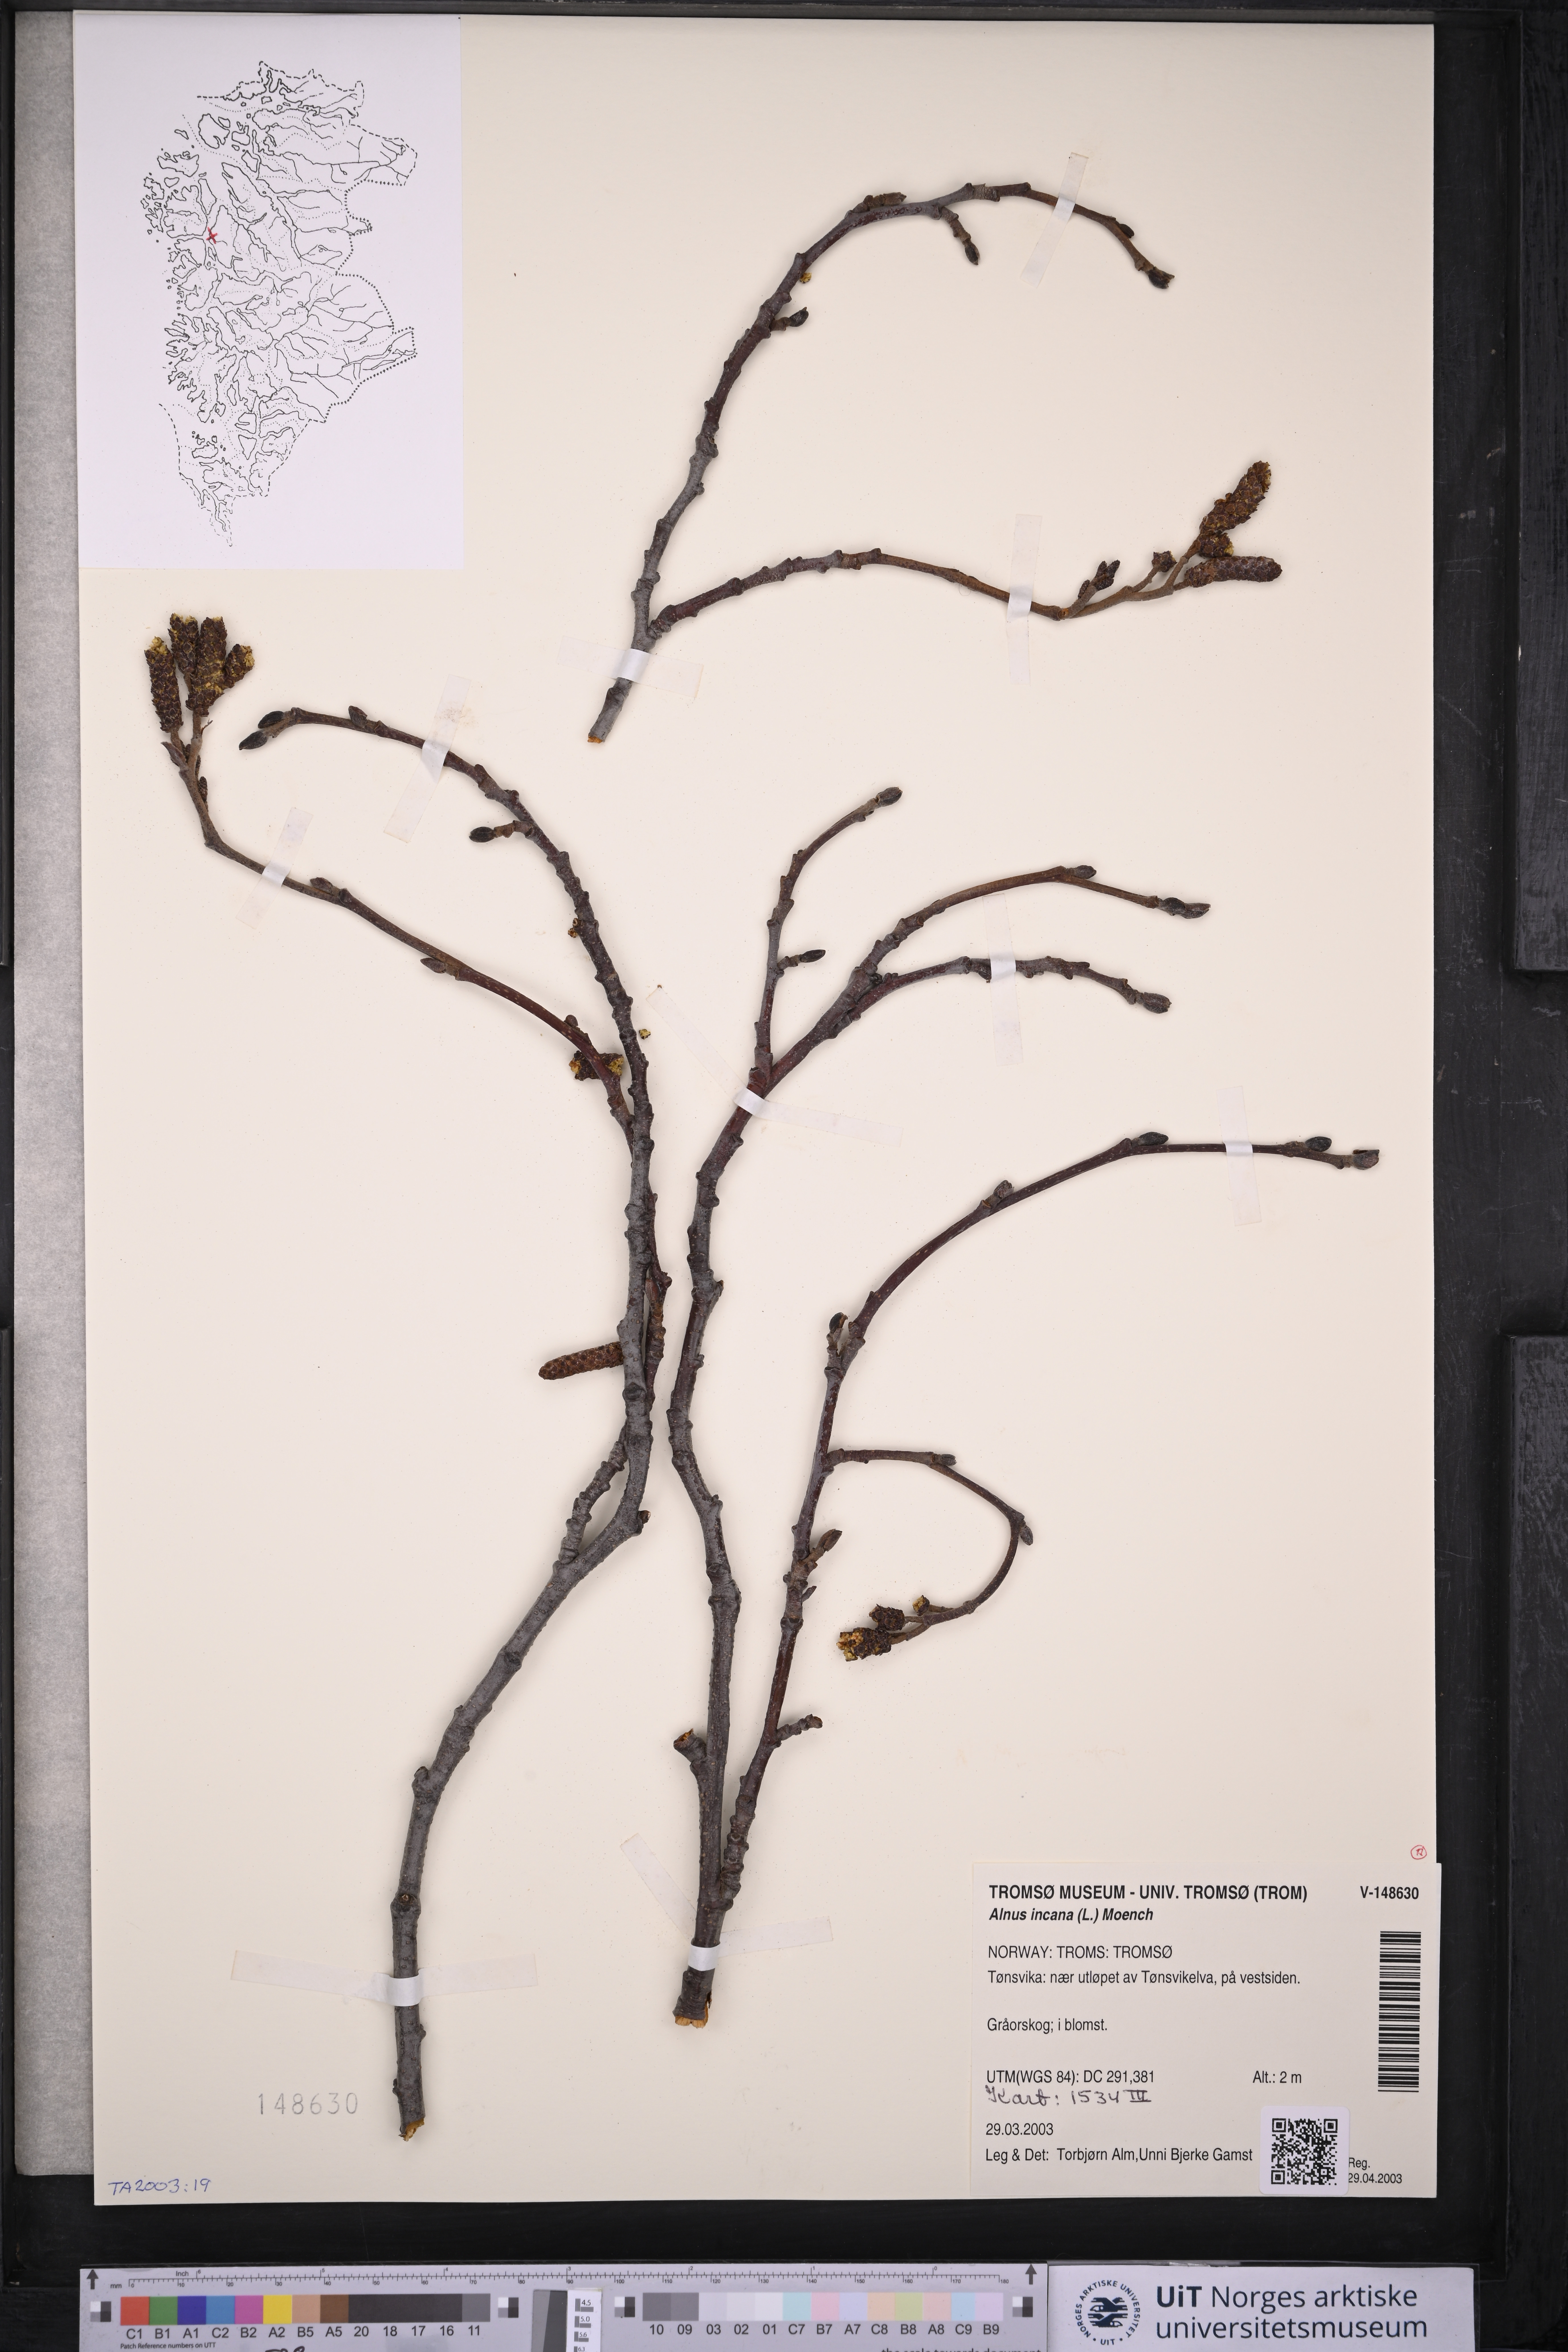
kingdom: Plantae
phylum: Tracheophyta
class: Magnoliopsida
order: Fagales
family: Betulaceae
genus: Alnus
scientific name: Alnus incana
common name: Grey alder
